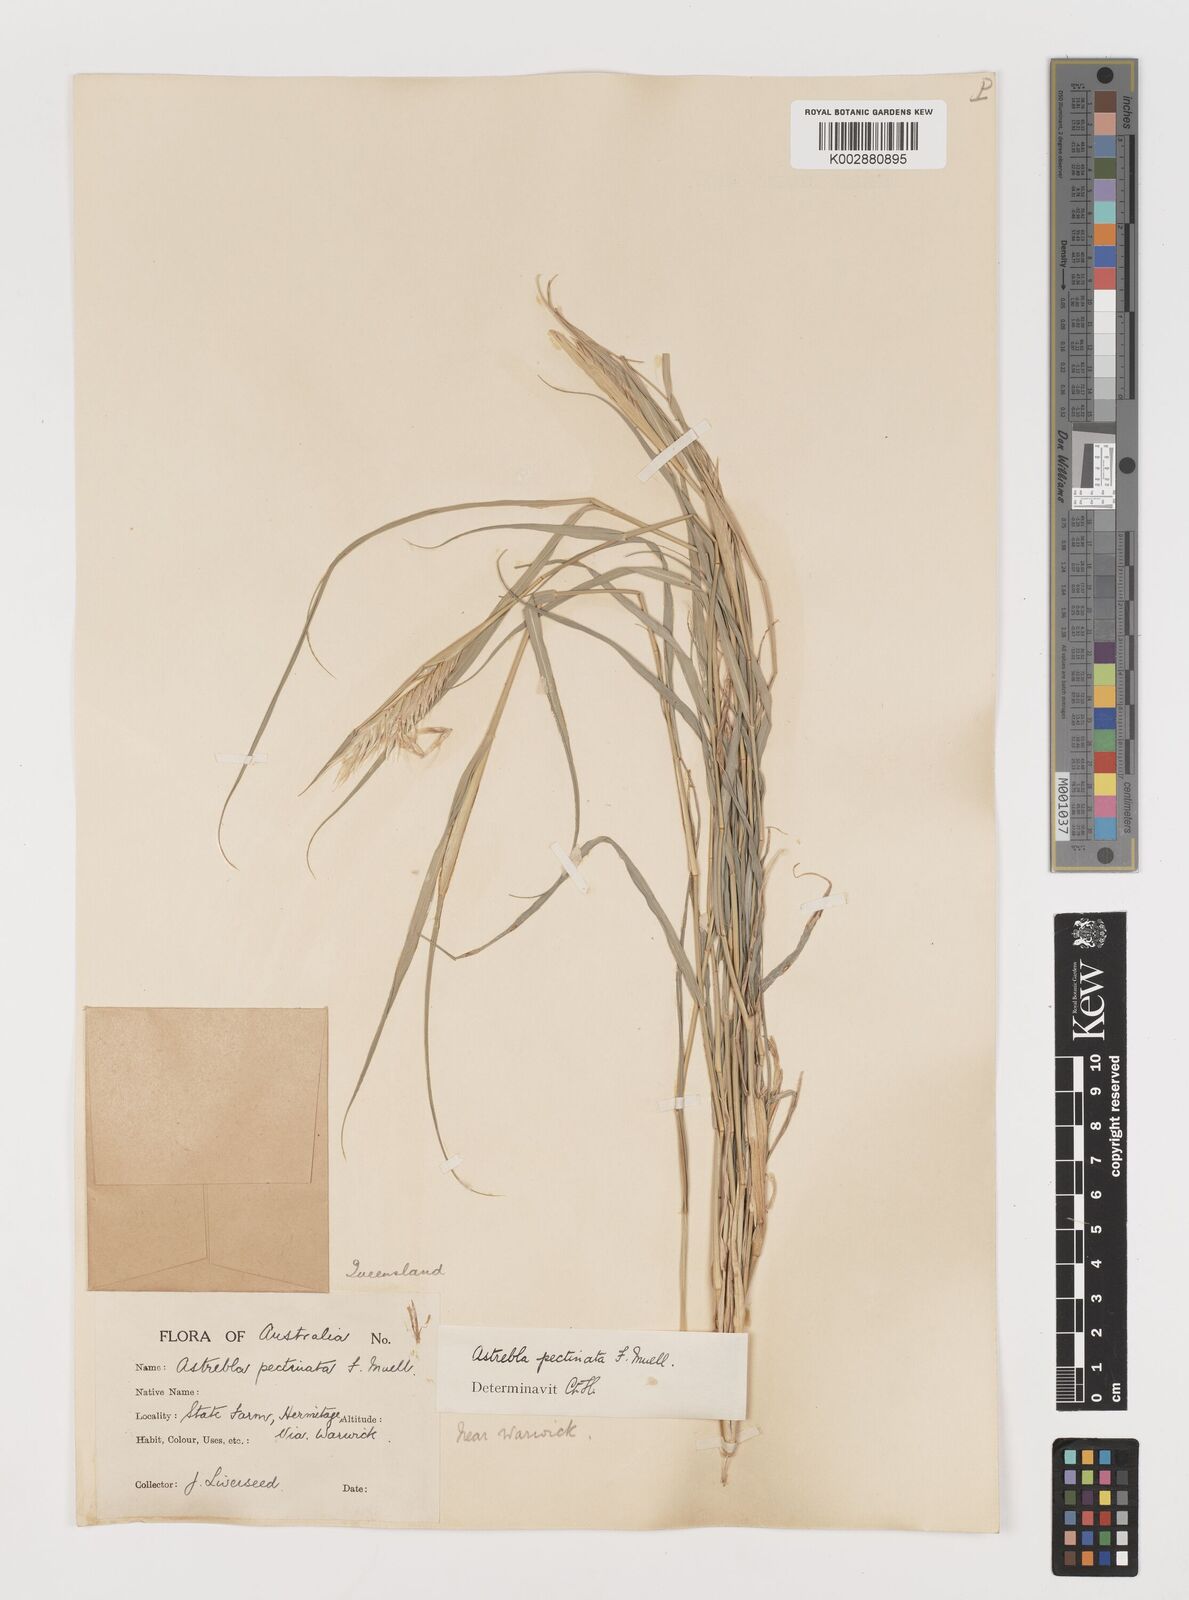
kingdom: Plantae
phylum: Tracheophyta
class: Liliopsida
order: Poales
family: Poaceae
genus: Astrebla
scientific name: Astrebla pectinata
